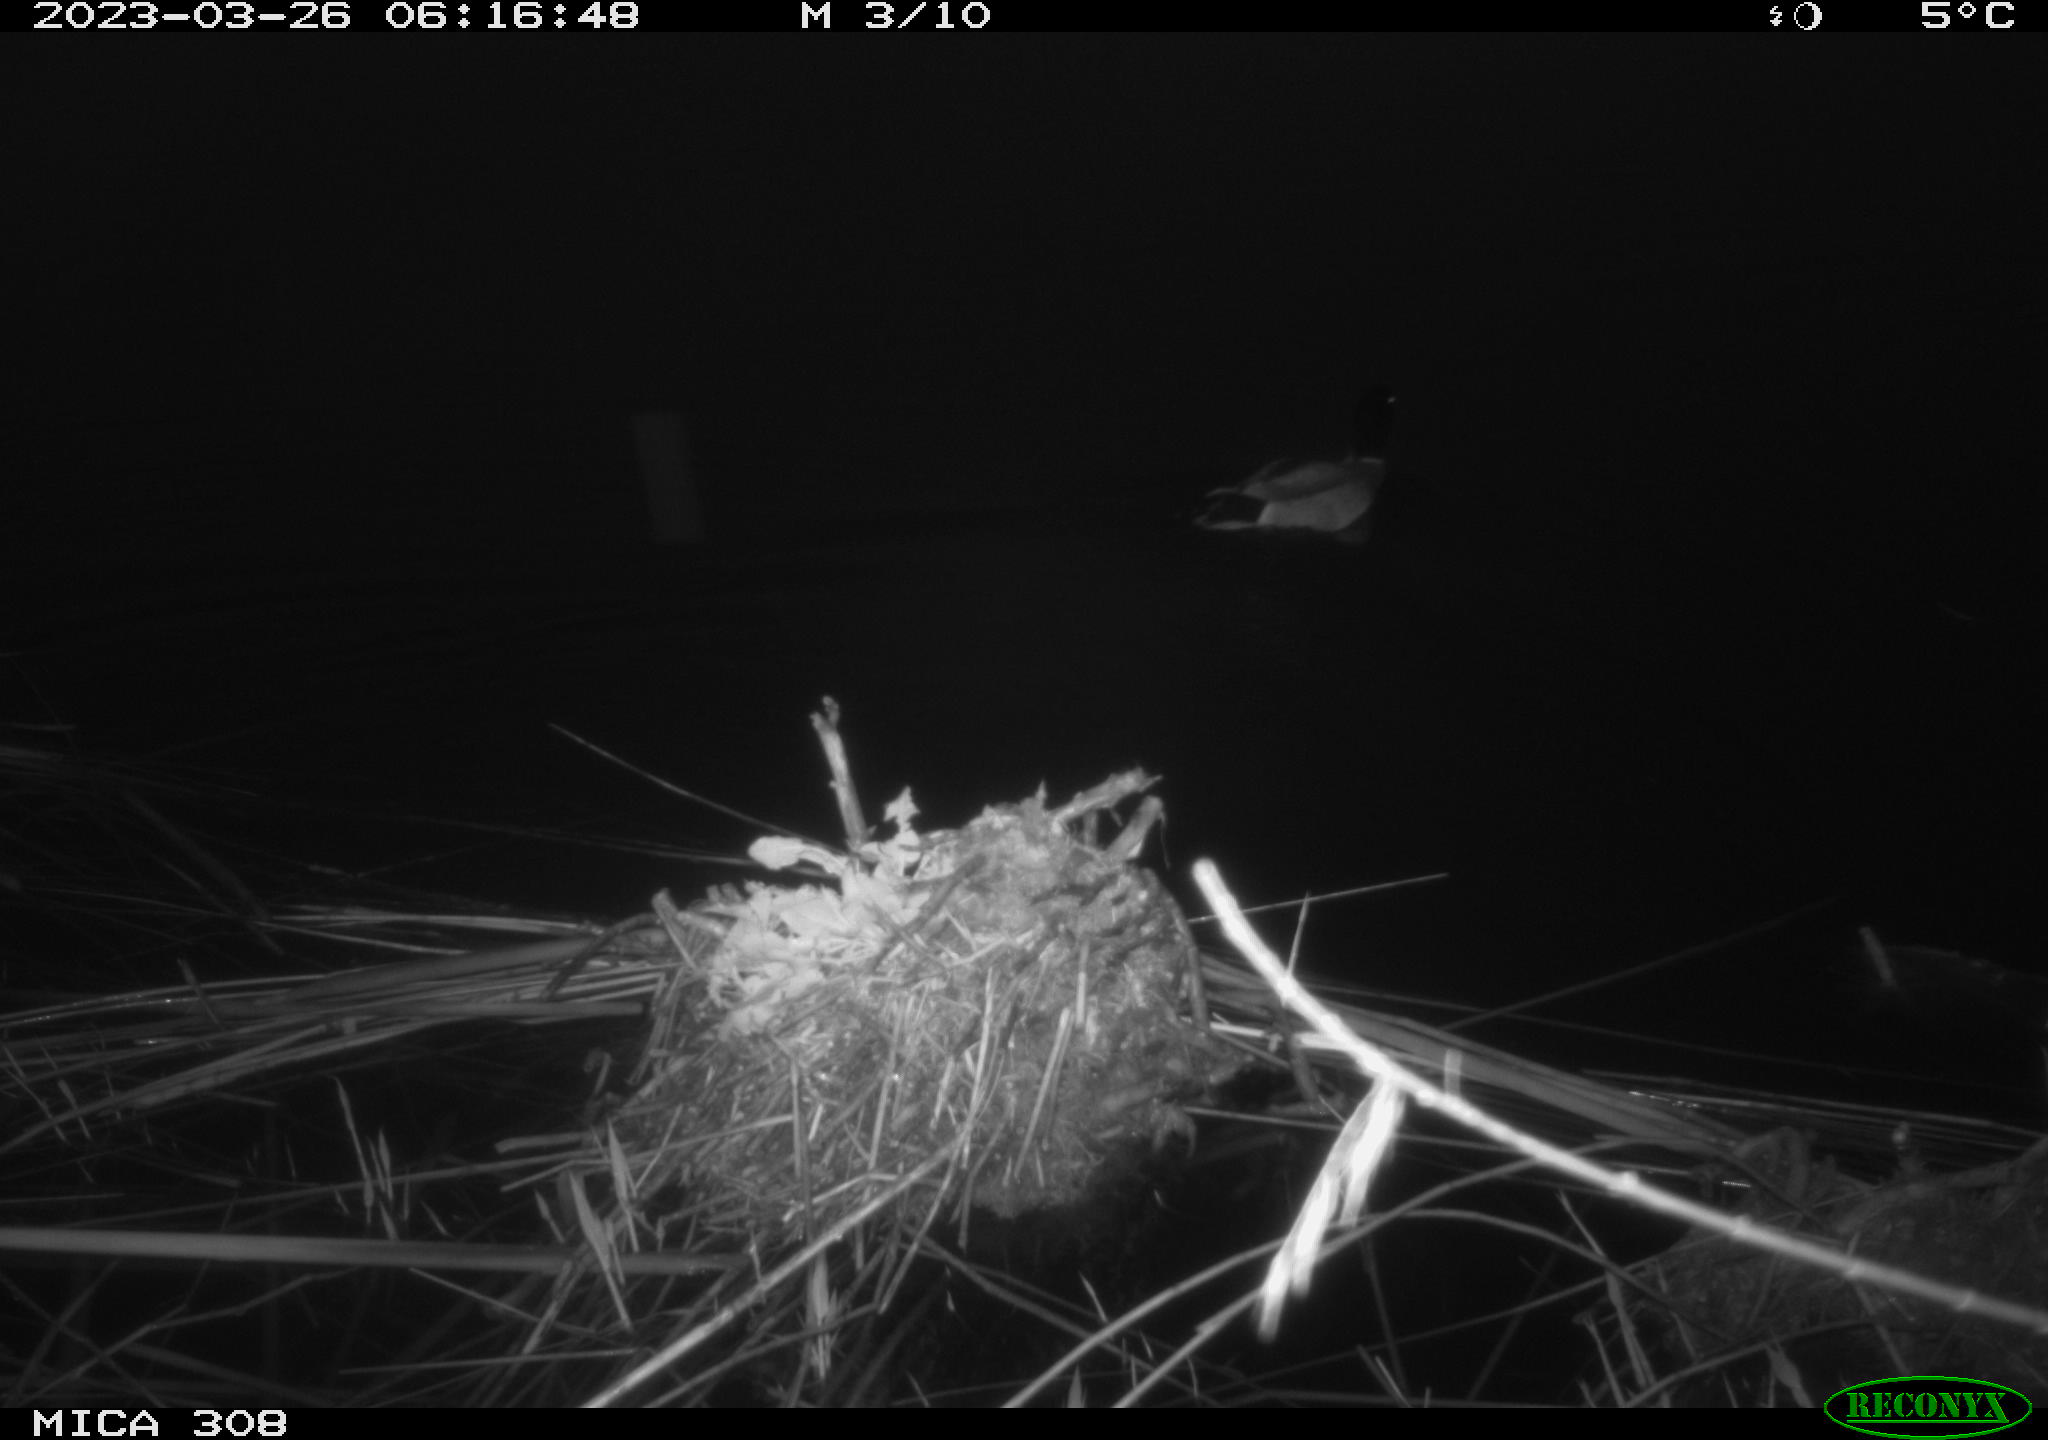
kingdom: Animalia
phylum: Chordata
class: Aves
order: Anseriformes
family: Anatidae
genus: Anas
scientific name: Anas
